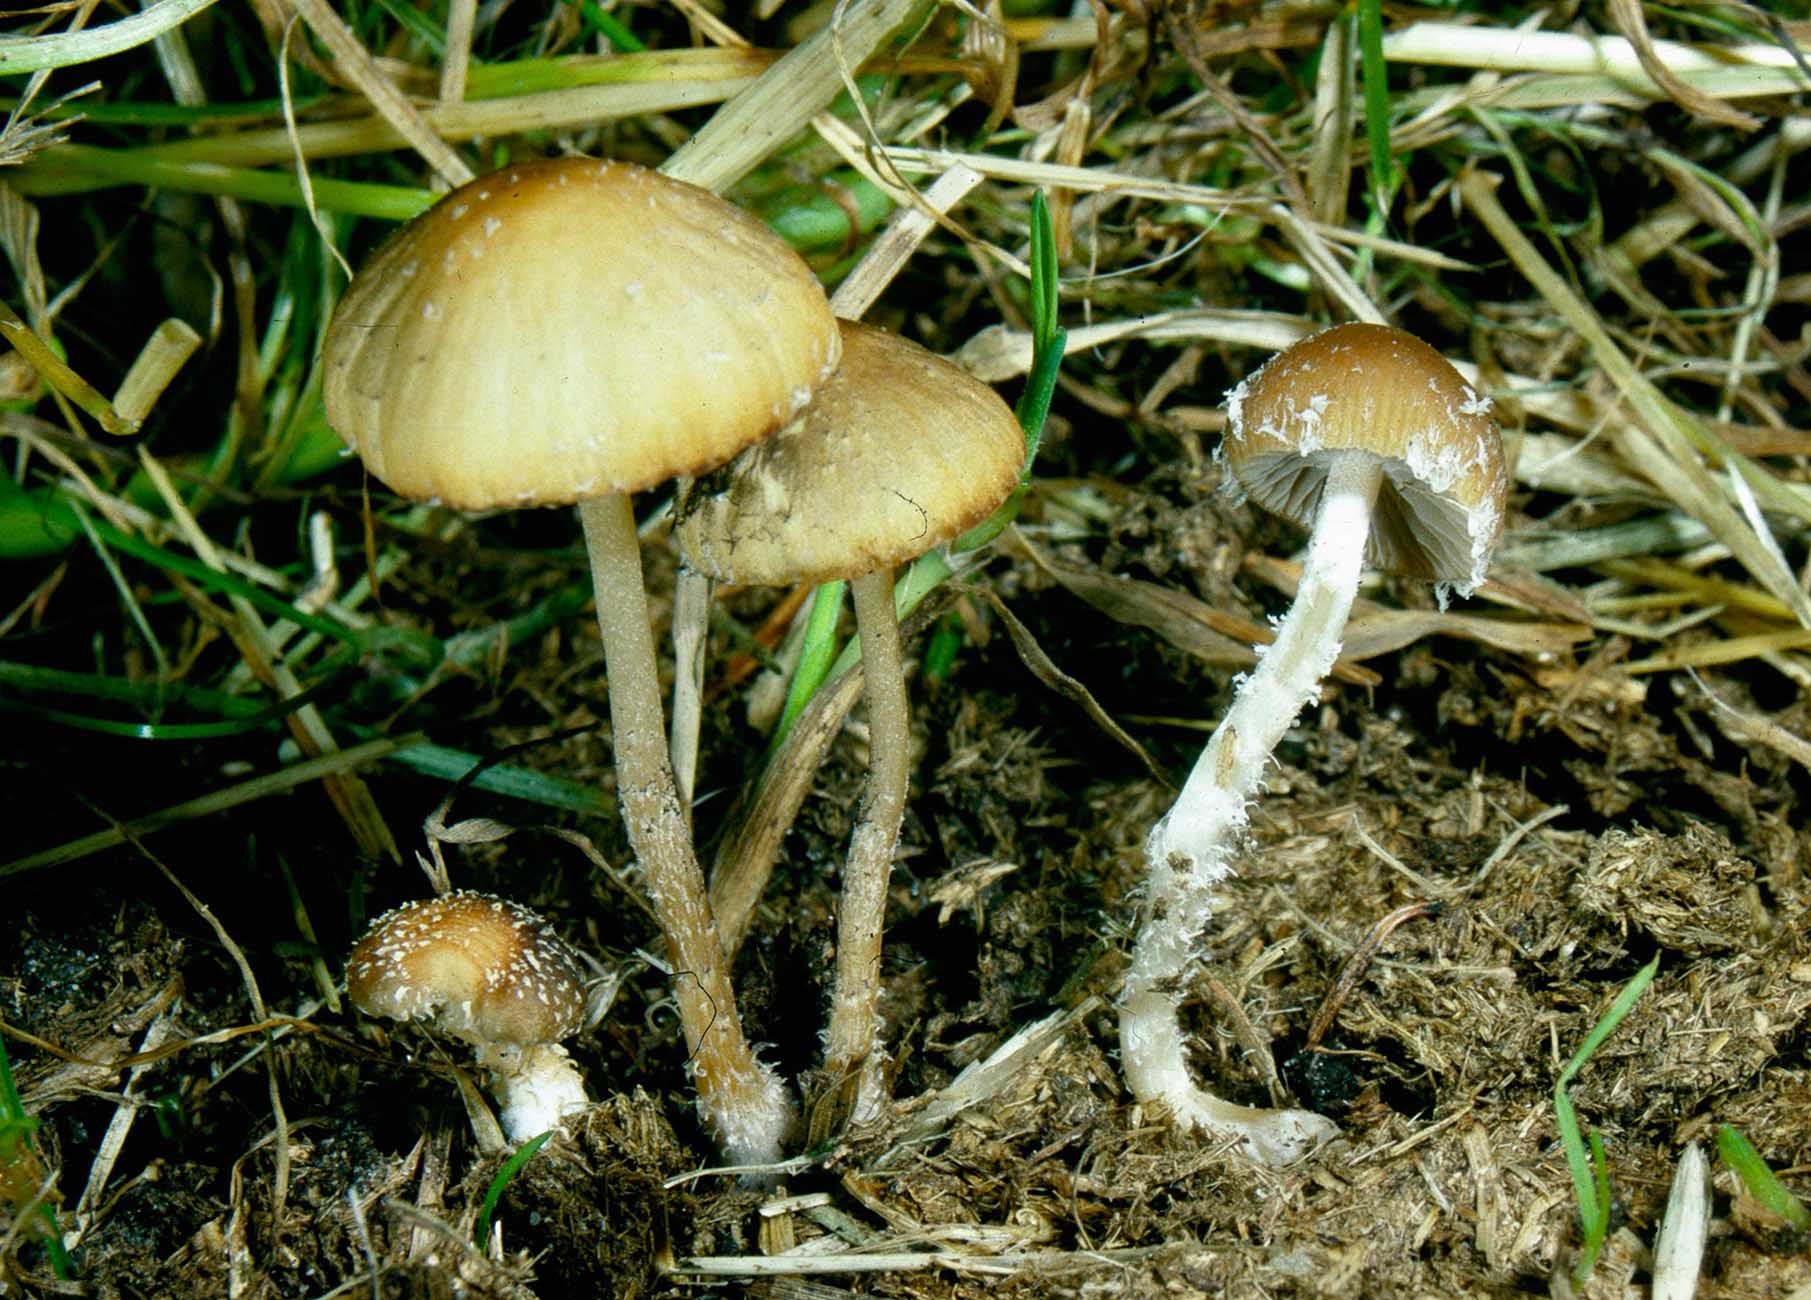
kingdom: Fungi
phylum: Basidiomycota
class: Agaricomycetes
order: Agaricales
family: Psathyrellaceae
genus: Psathyrella
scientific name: Psathyrella hirta
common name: møg-mørkhat
